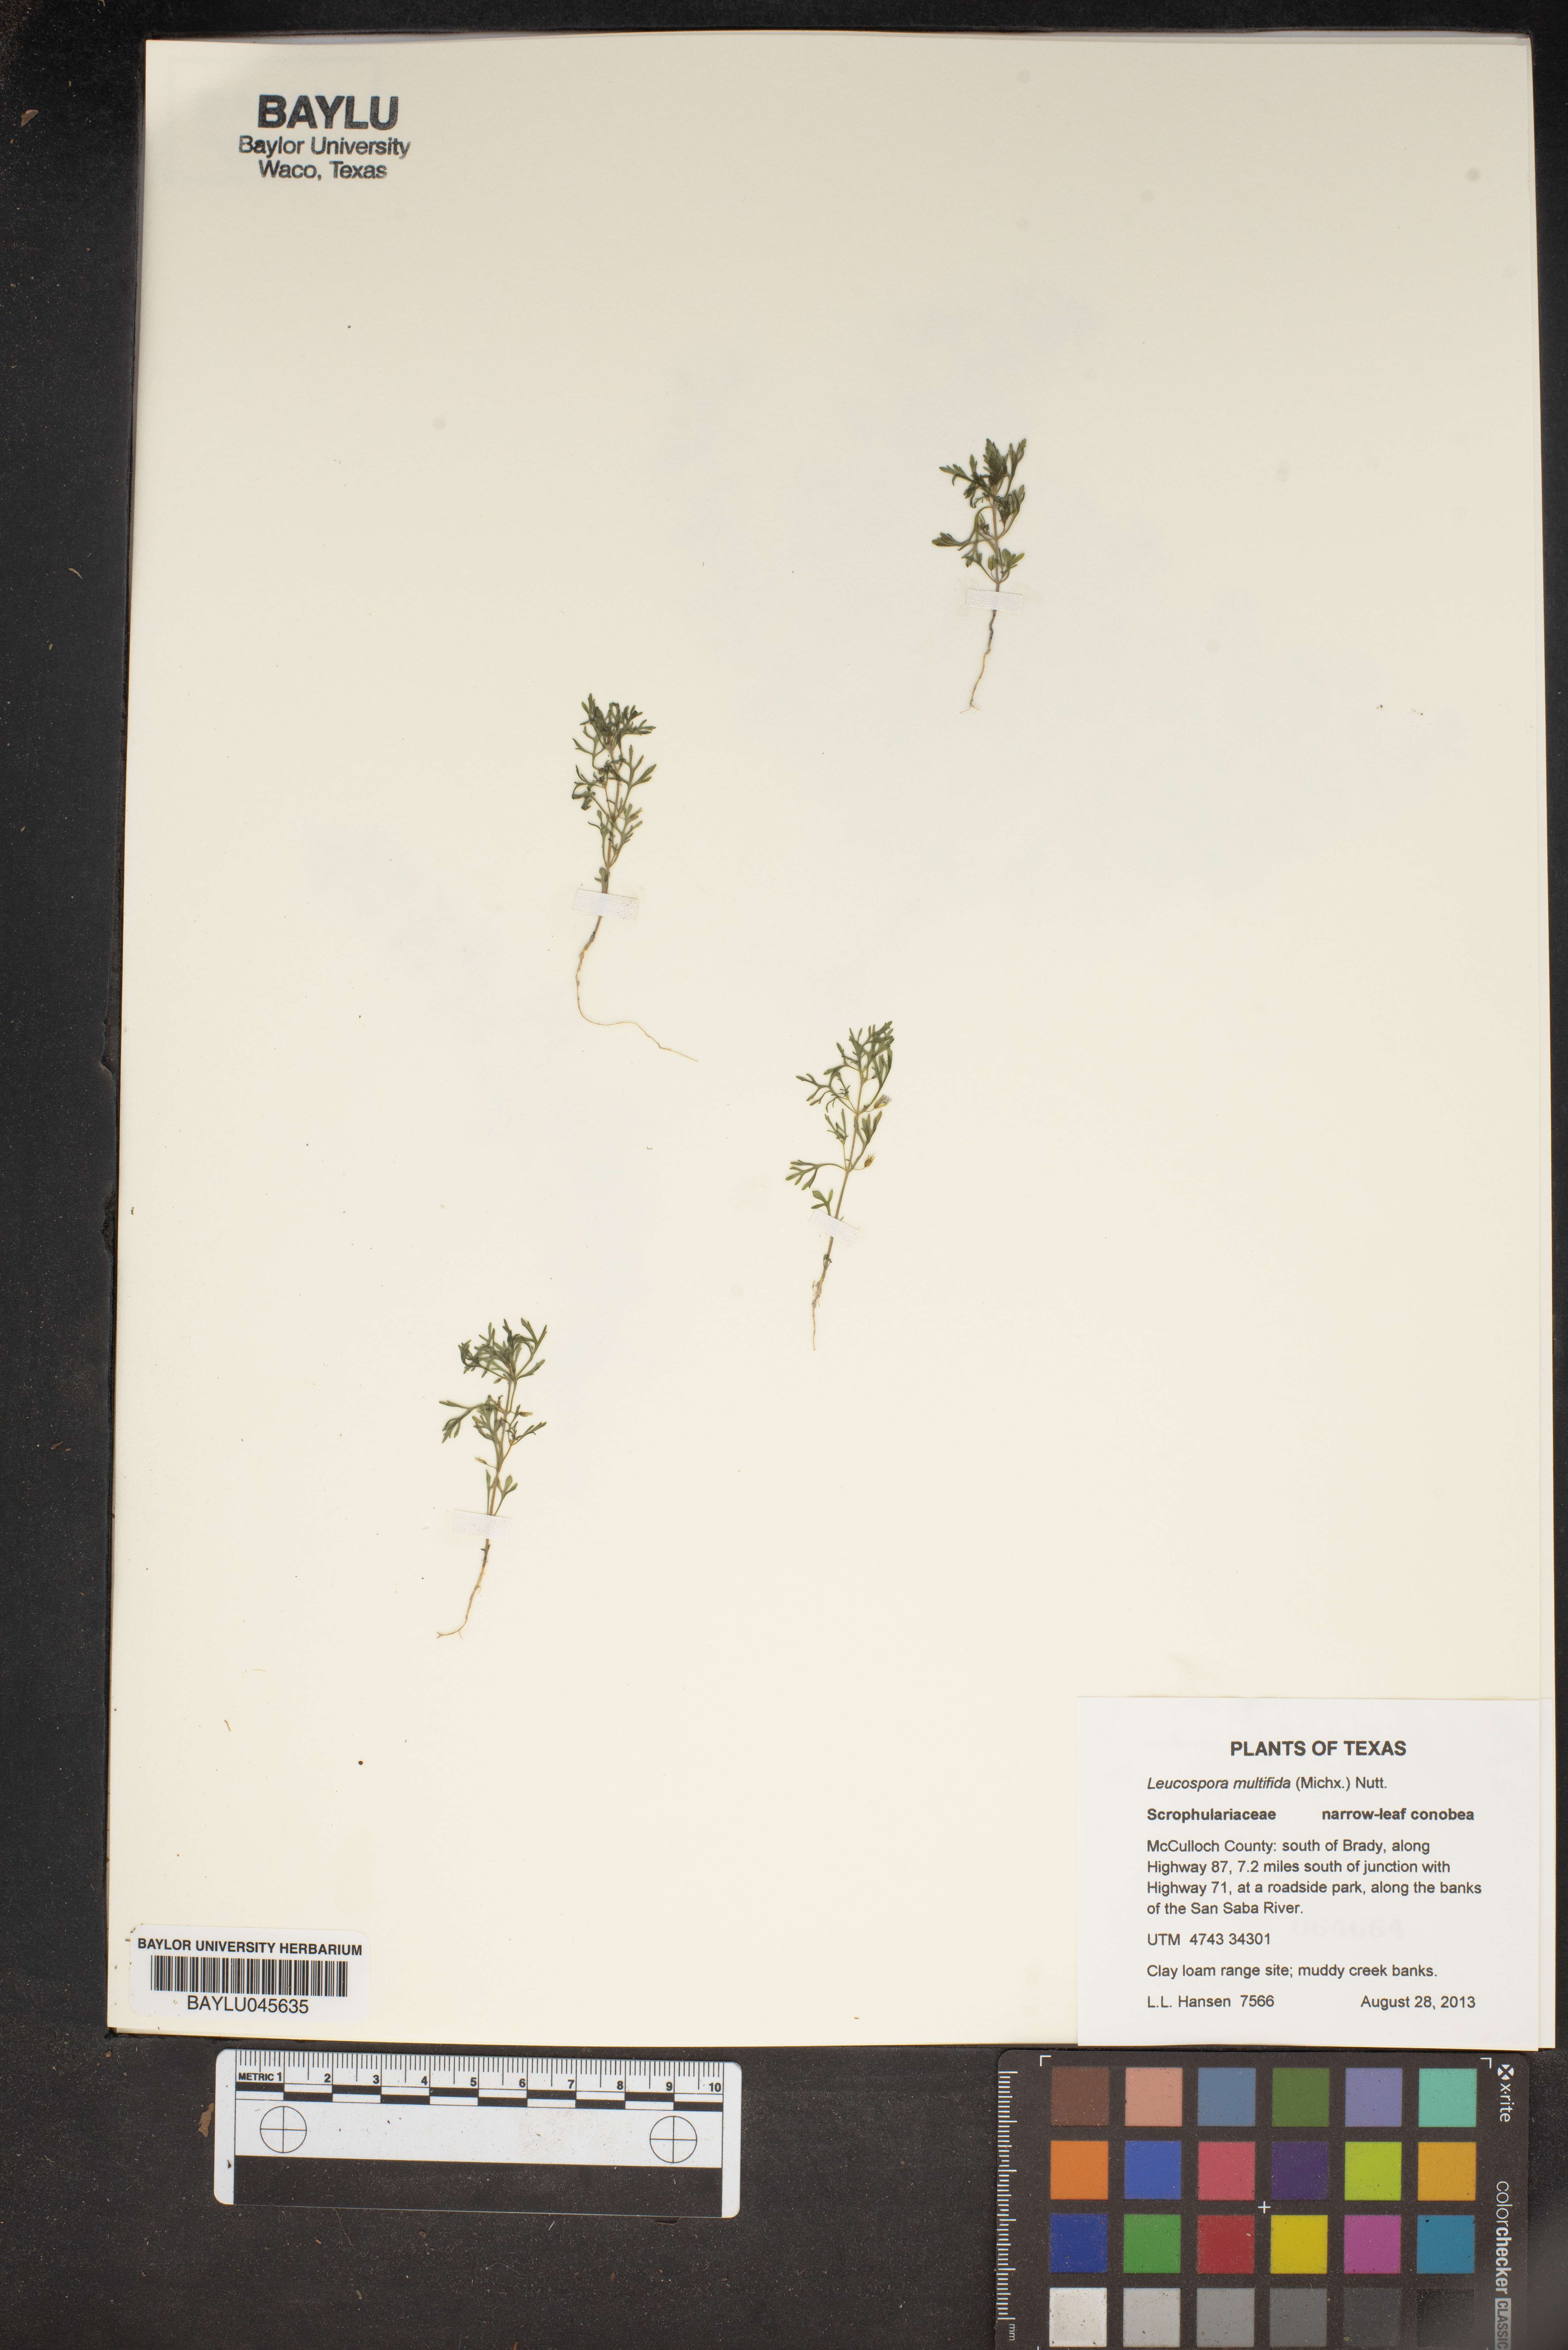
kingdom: Plantae
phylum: Tracheophyta
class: Magnoliopsida
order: Lamiales
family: Plantaginaceae
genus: Leucospora
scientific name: Leucospora multifida
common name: Narrow-leaf paleseed
